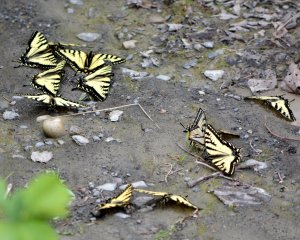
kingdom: Animalia
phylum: Arthropoda
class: Insecta
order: Lepidoptera
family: Papilionidae
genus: Pterourus
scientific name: Pterourus canadensis
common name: Canadian Tiger Swallowtail
